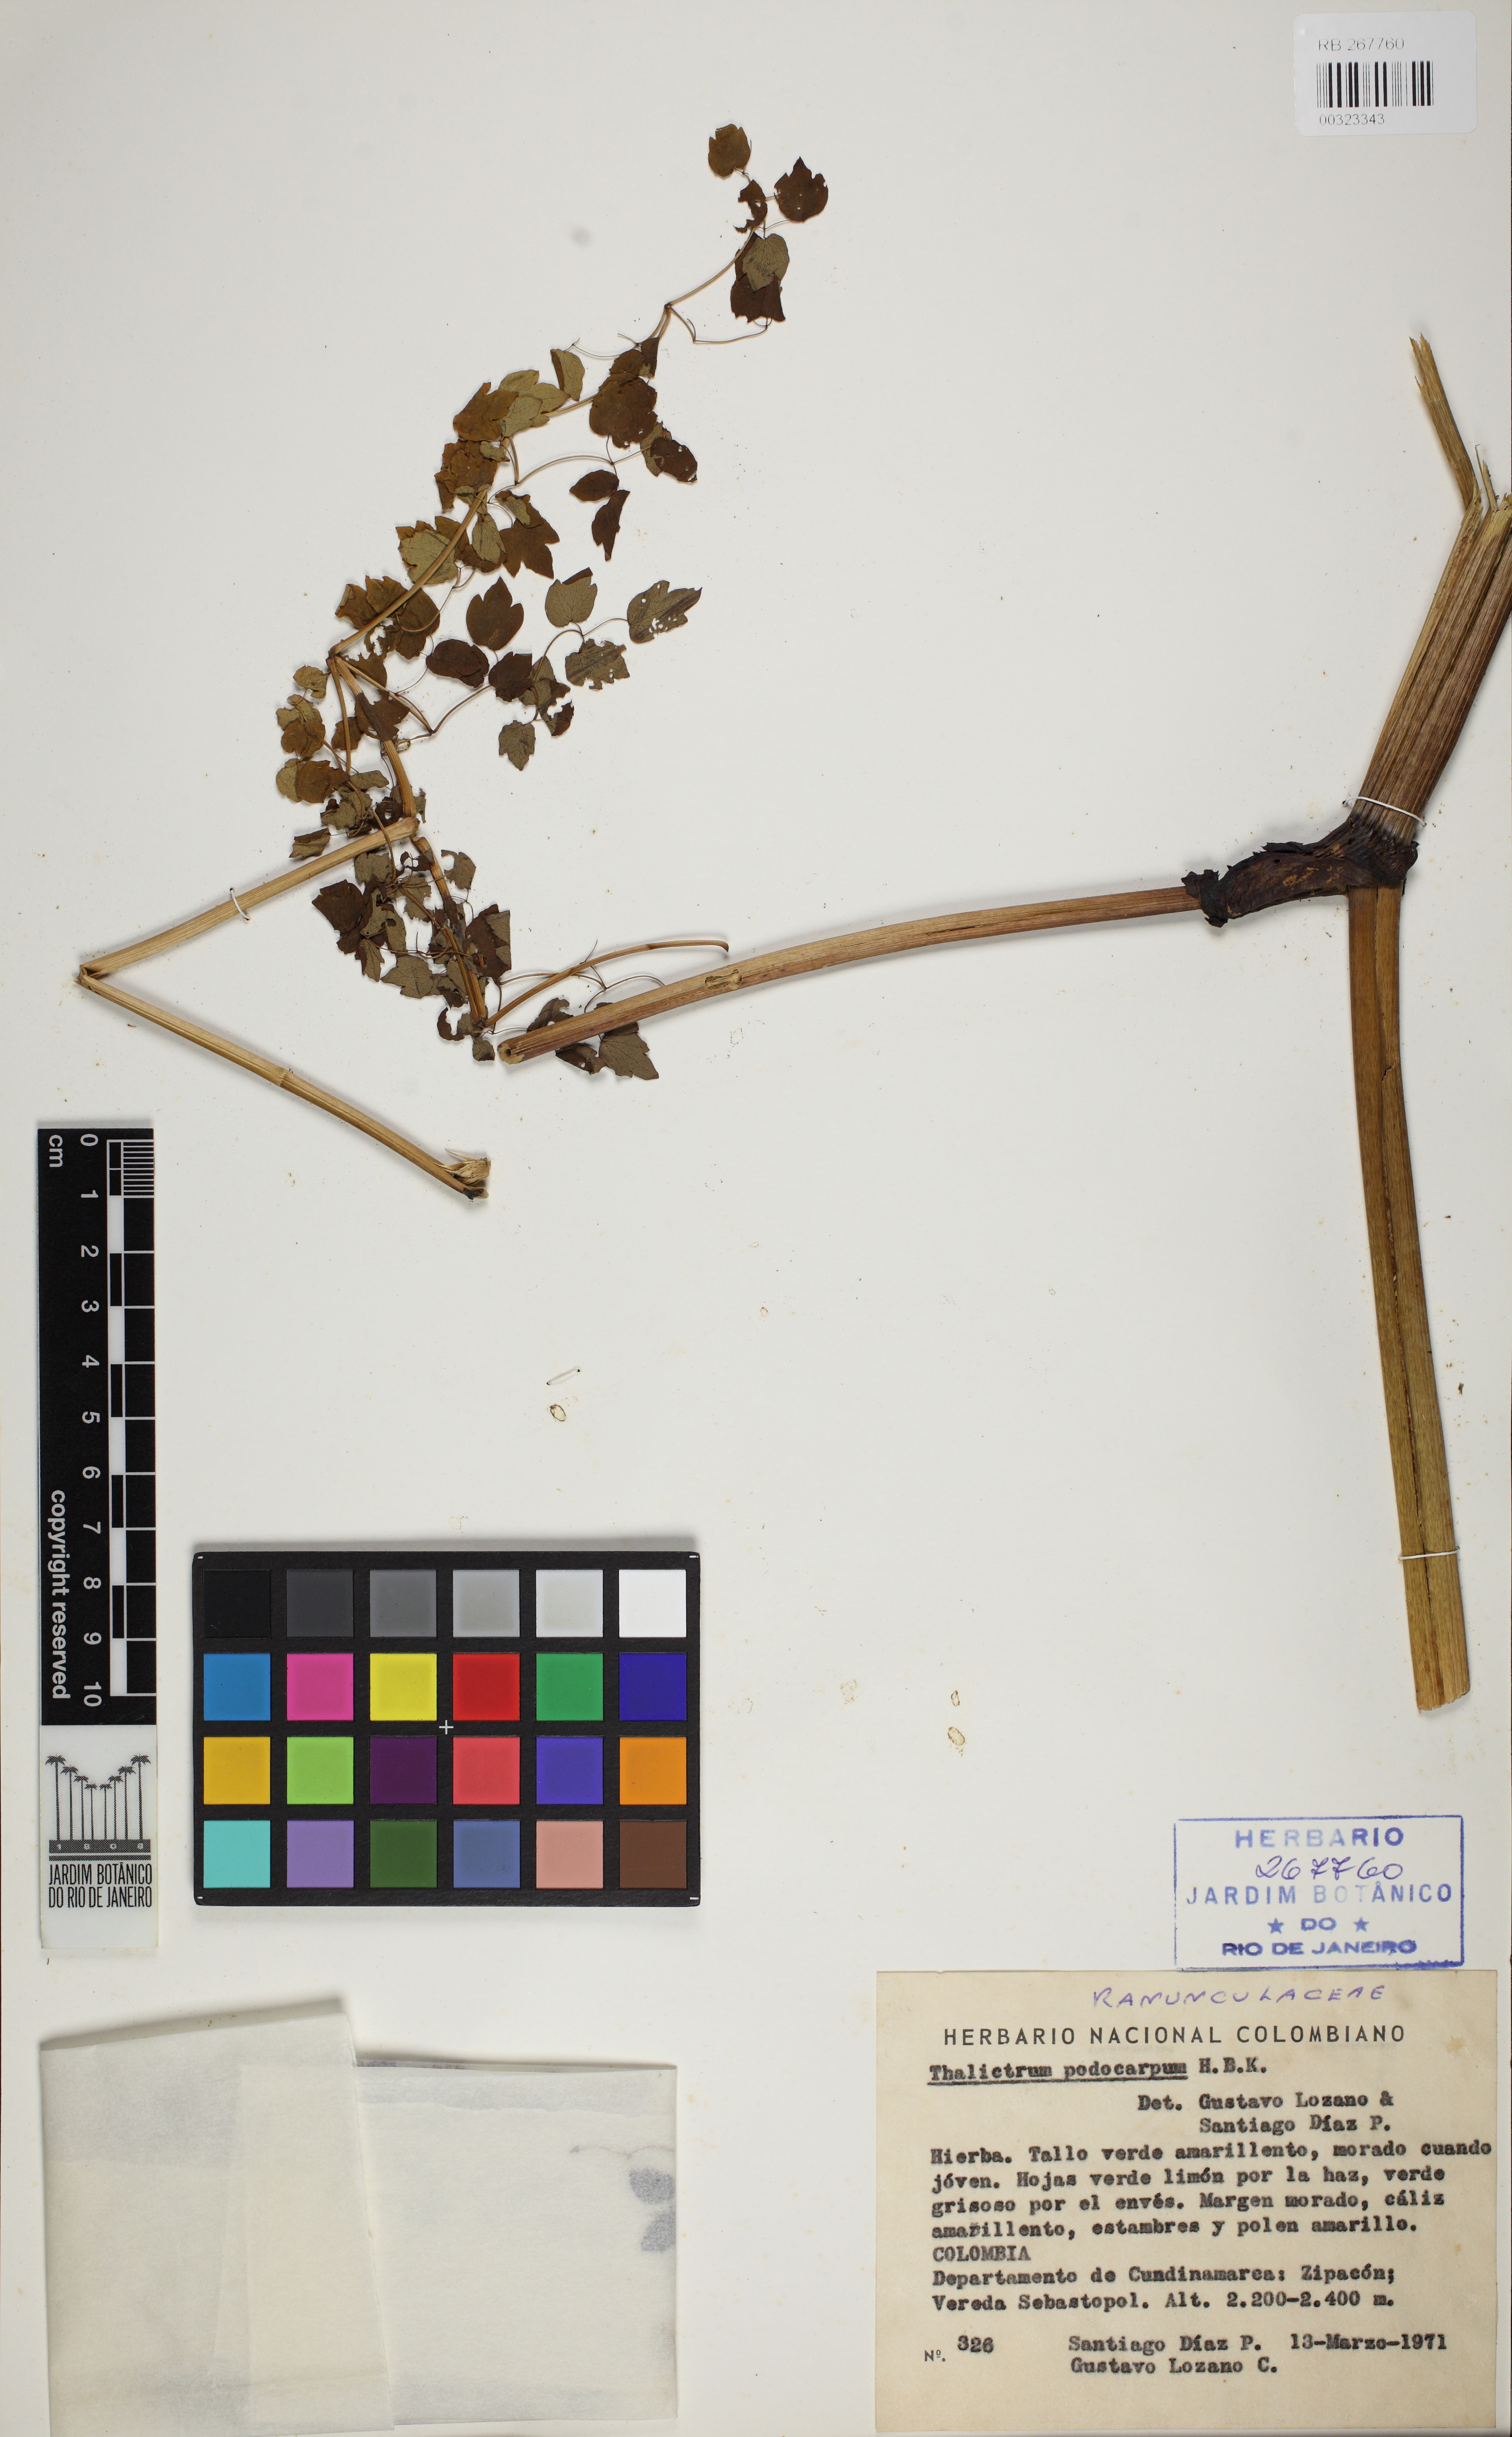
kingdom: Plantae
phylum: Tracheophyta
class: Magnoliopsida
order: Ranunculales
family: Ranunculaceae
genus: Thalictrum
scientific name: Thalictrum podocarpum
